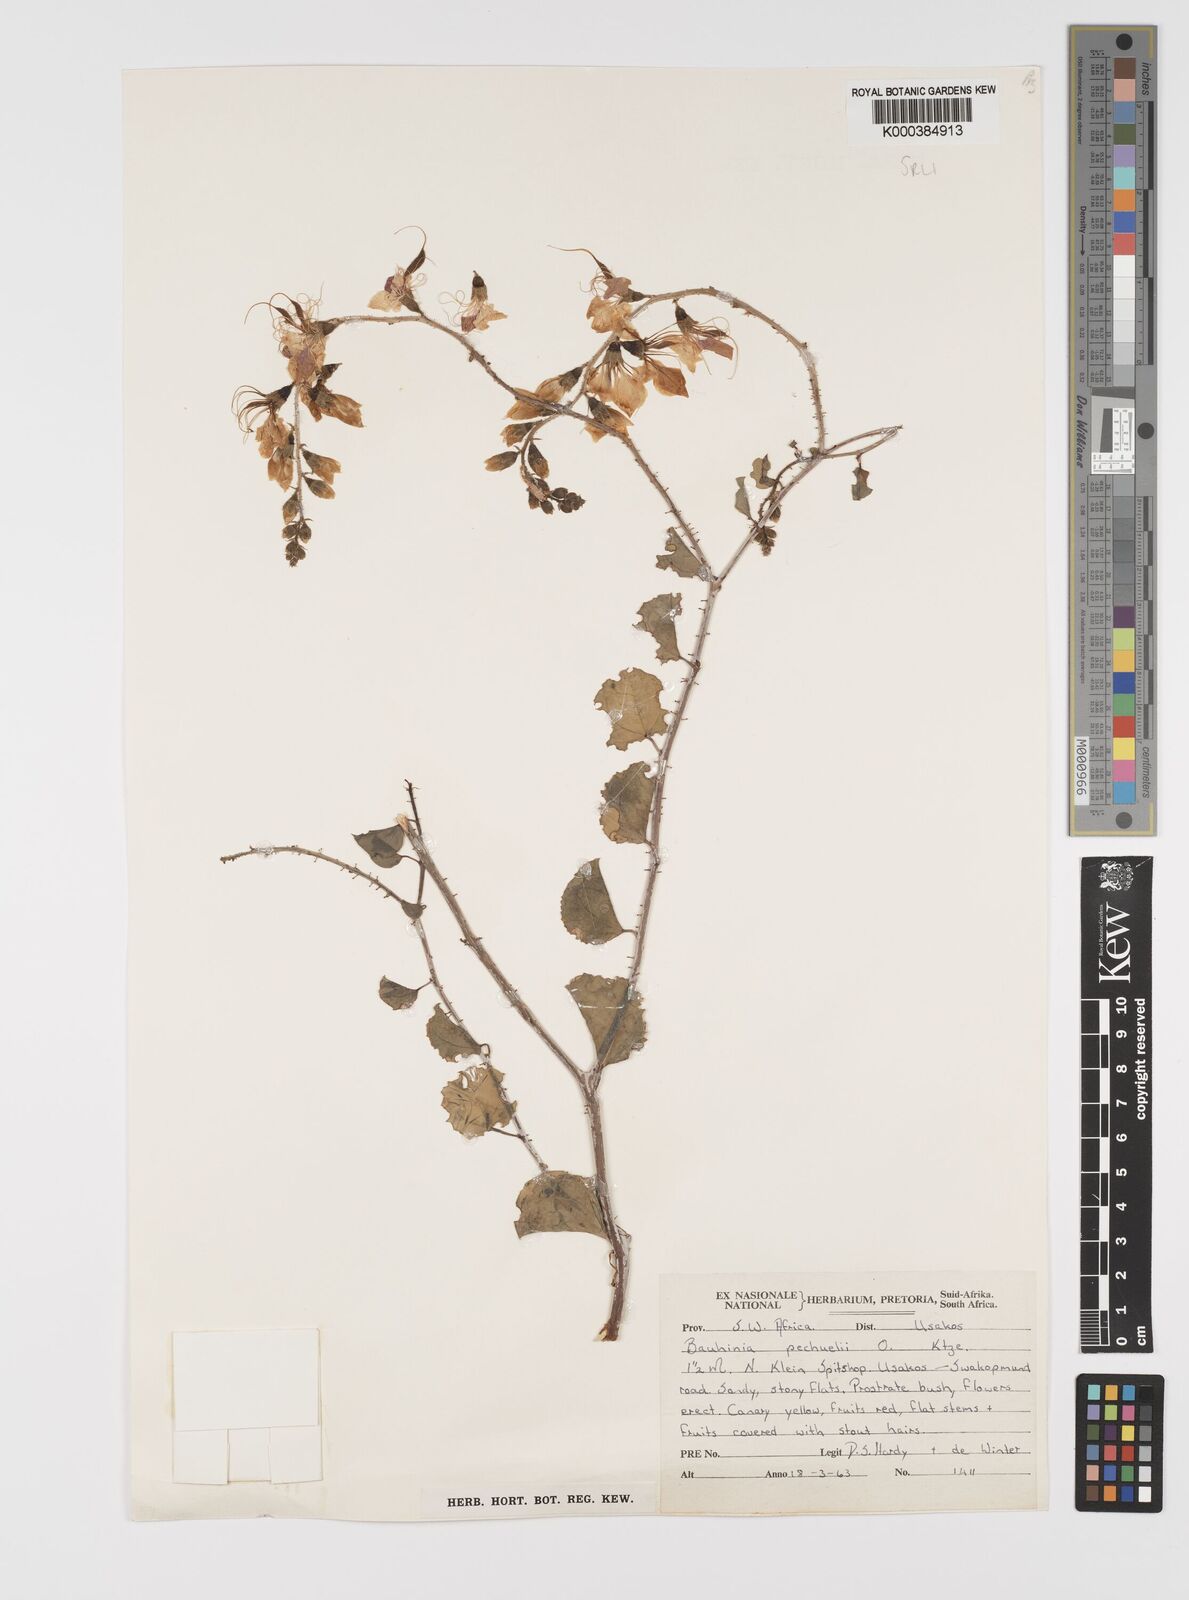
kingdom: Plantae
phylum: Tracheophyta
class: Magnoliopsida
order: Fabales
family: Fabaceae
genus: Bauhinia
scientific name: Bauhinia
